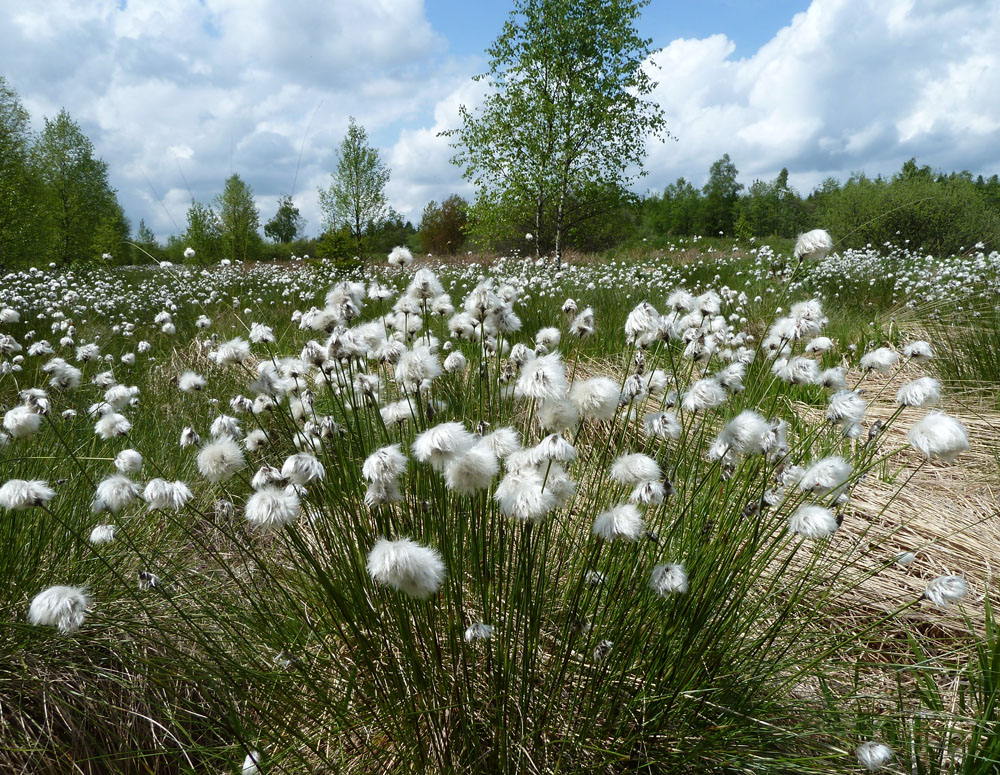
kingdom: Plantae
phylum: Tracheophyta
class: Liliopsida
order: Poales
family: Cyperaceae
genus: Eriophorum
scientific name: Eriophorum vaginatum
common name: Hare's-tail cottongrass
